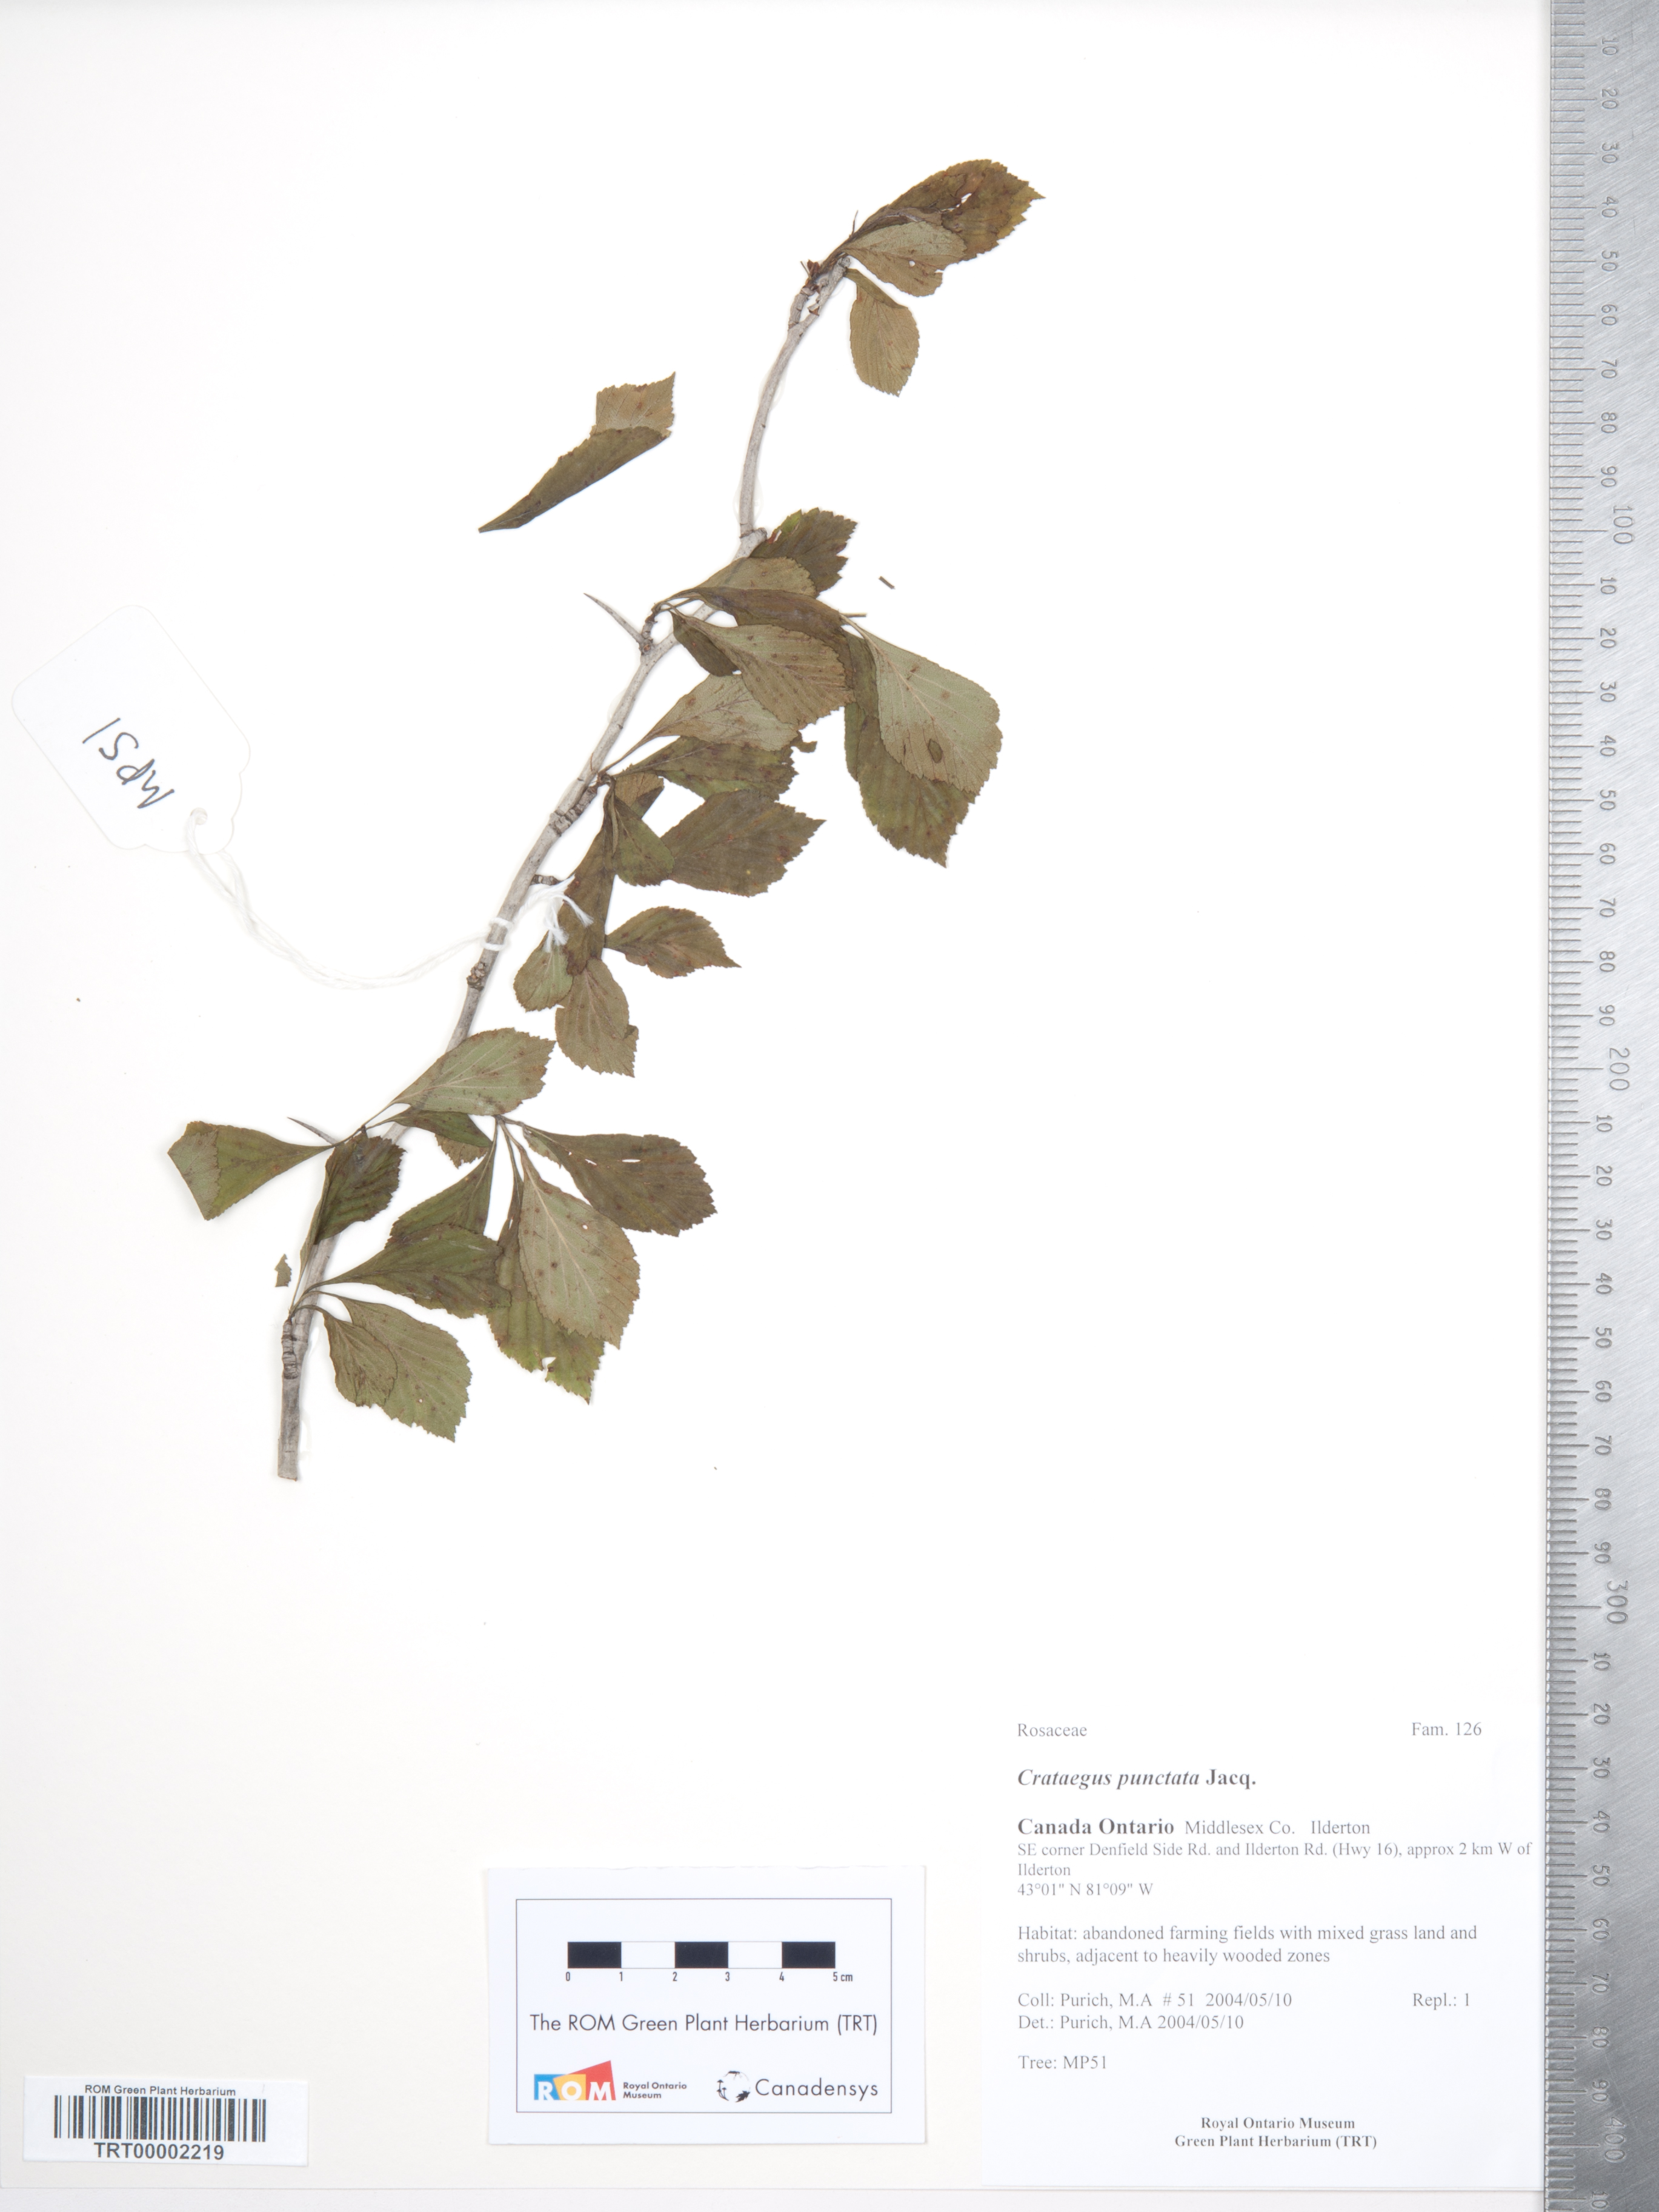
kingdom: Plantae
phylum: Tracheophyta
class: Magnoliopsida
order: Rosales
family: Rosaceae
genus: Crataegus
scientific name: Crataegus punctata
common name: Dotted hawthorn
